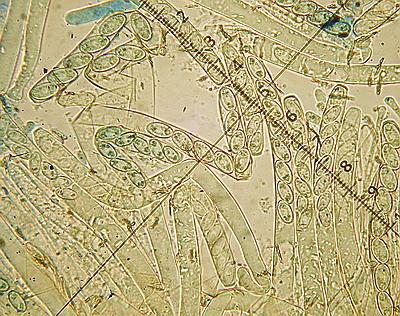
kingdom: Fungi
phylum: Ascomycota
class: Pezizomycetes
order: Pezizales
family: Pezizaceae
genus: Peziza
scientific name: Peziza arvernensis
